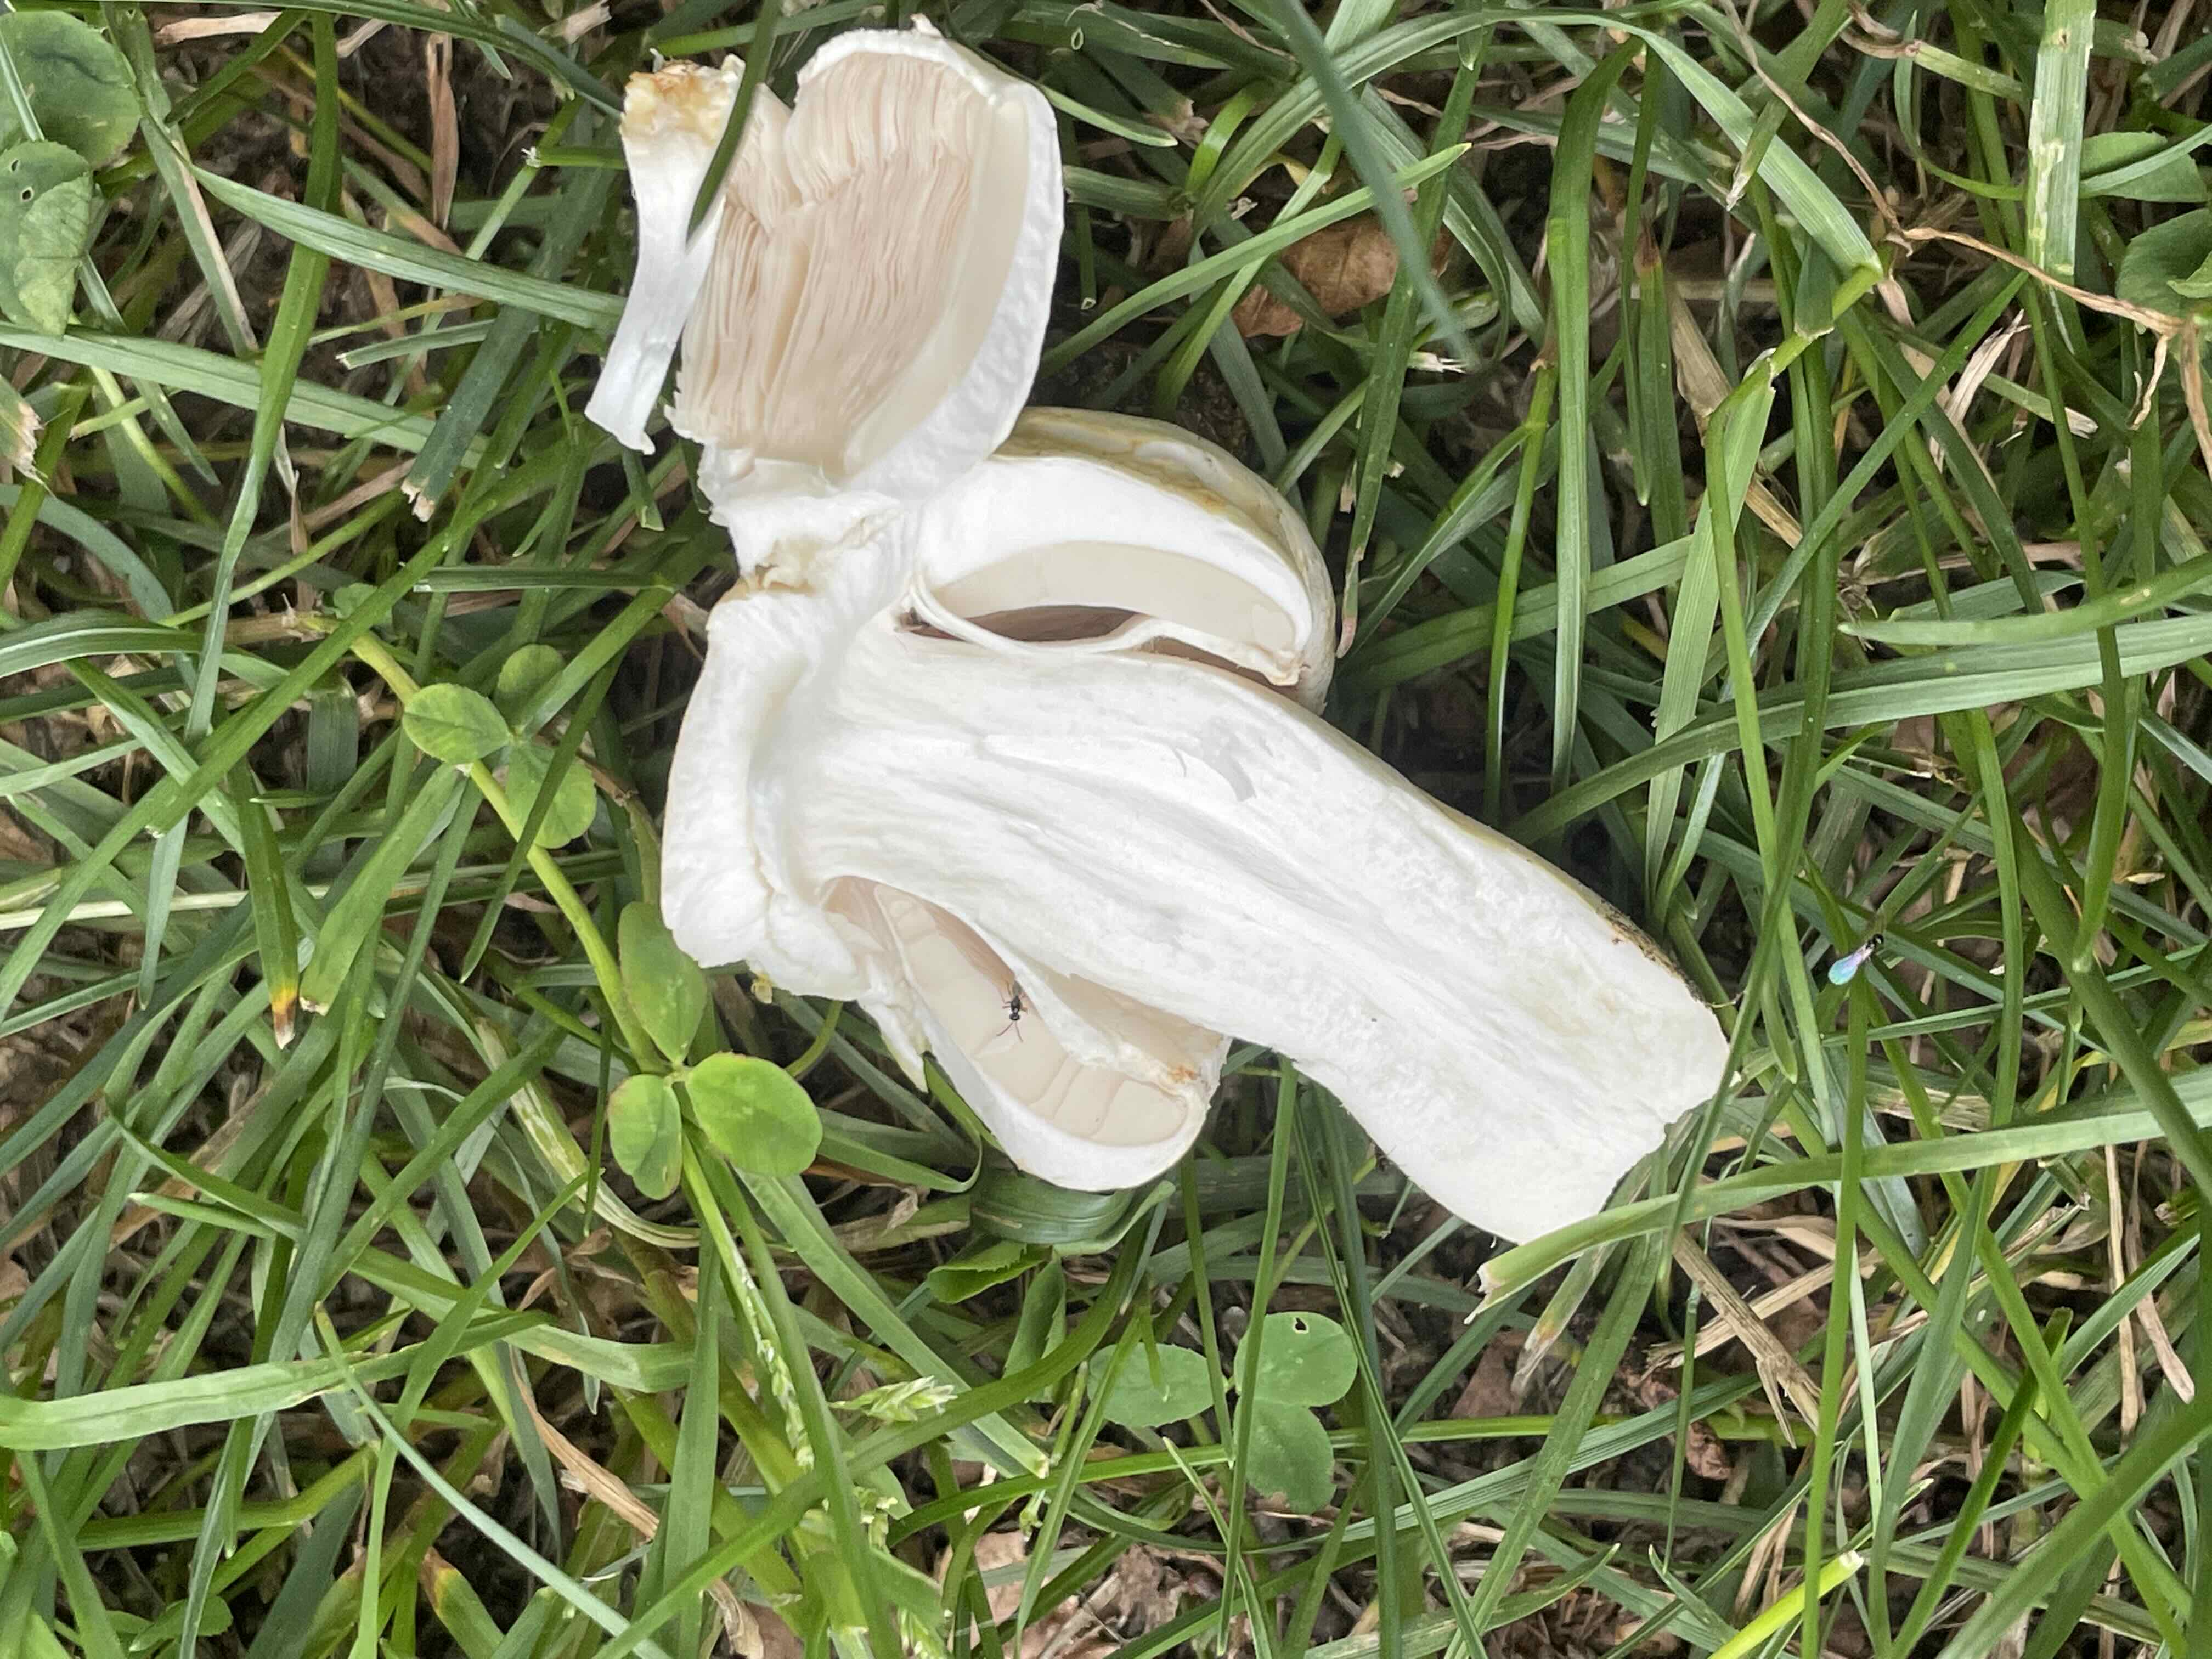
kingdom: Fungi
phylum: Basidiomycota
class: Agaricomycetes
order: Agaricales
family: Agaricaceae
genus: Agaricus
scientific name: Agaricus
